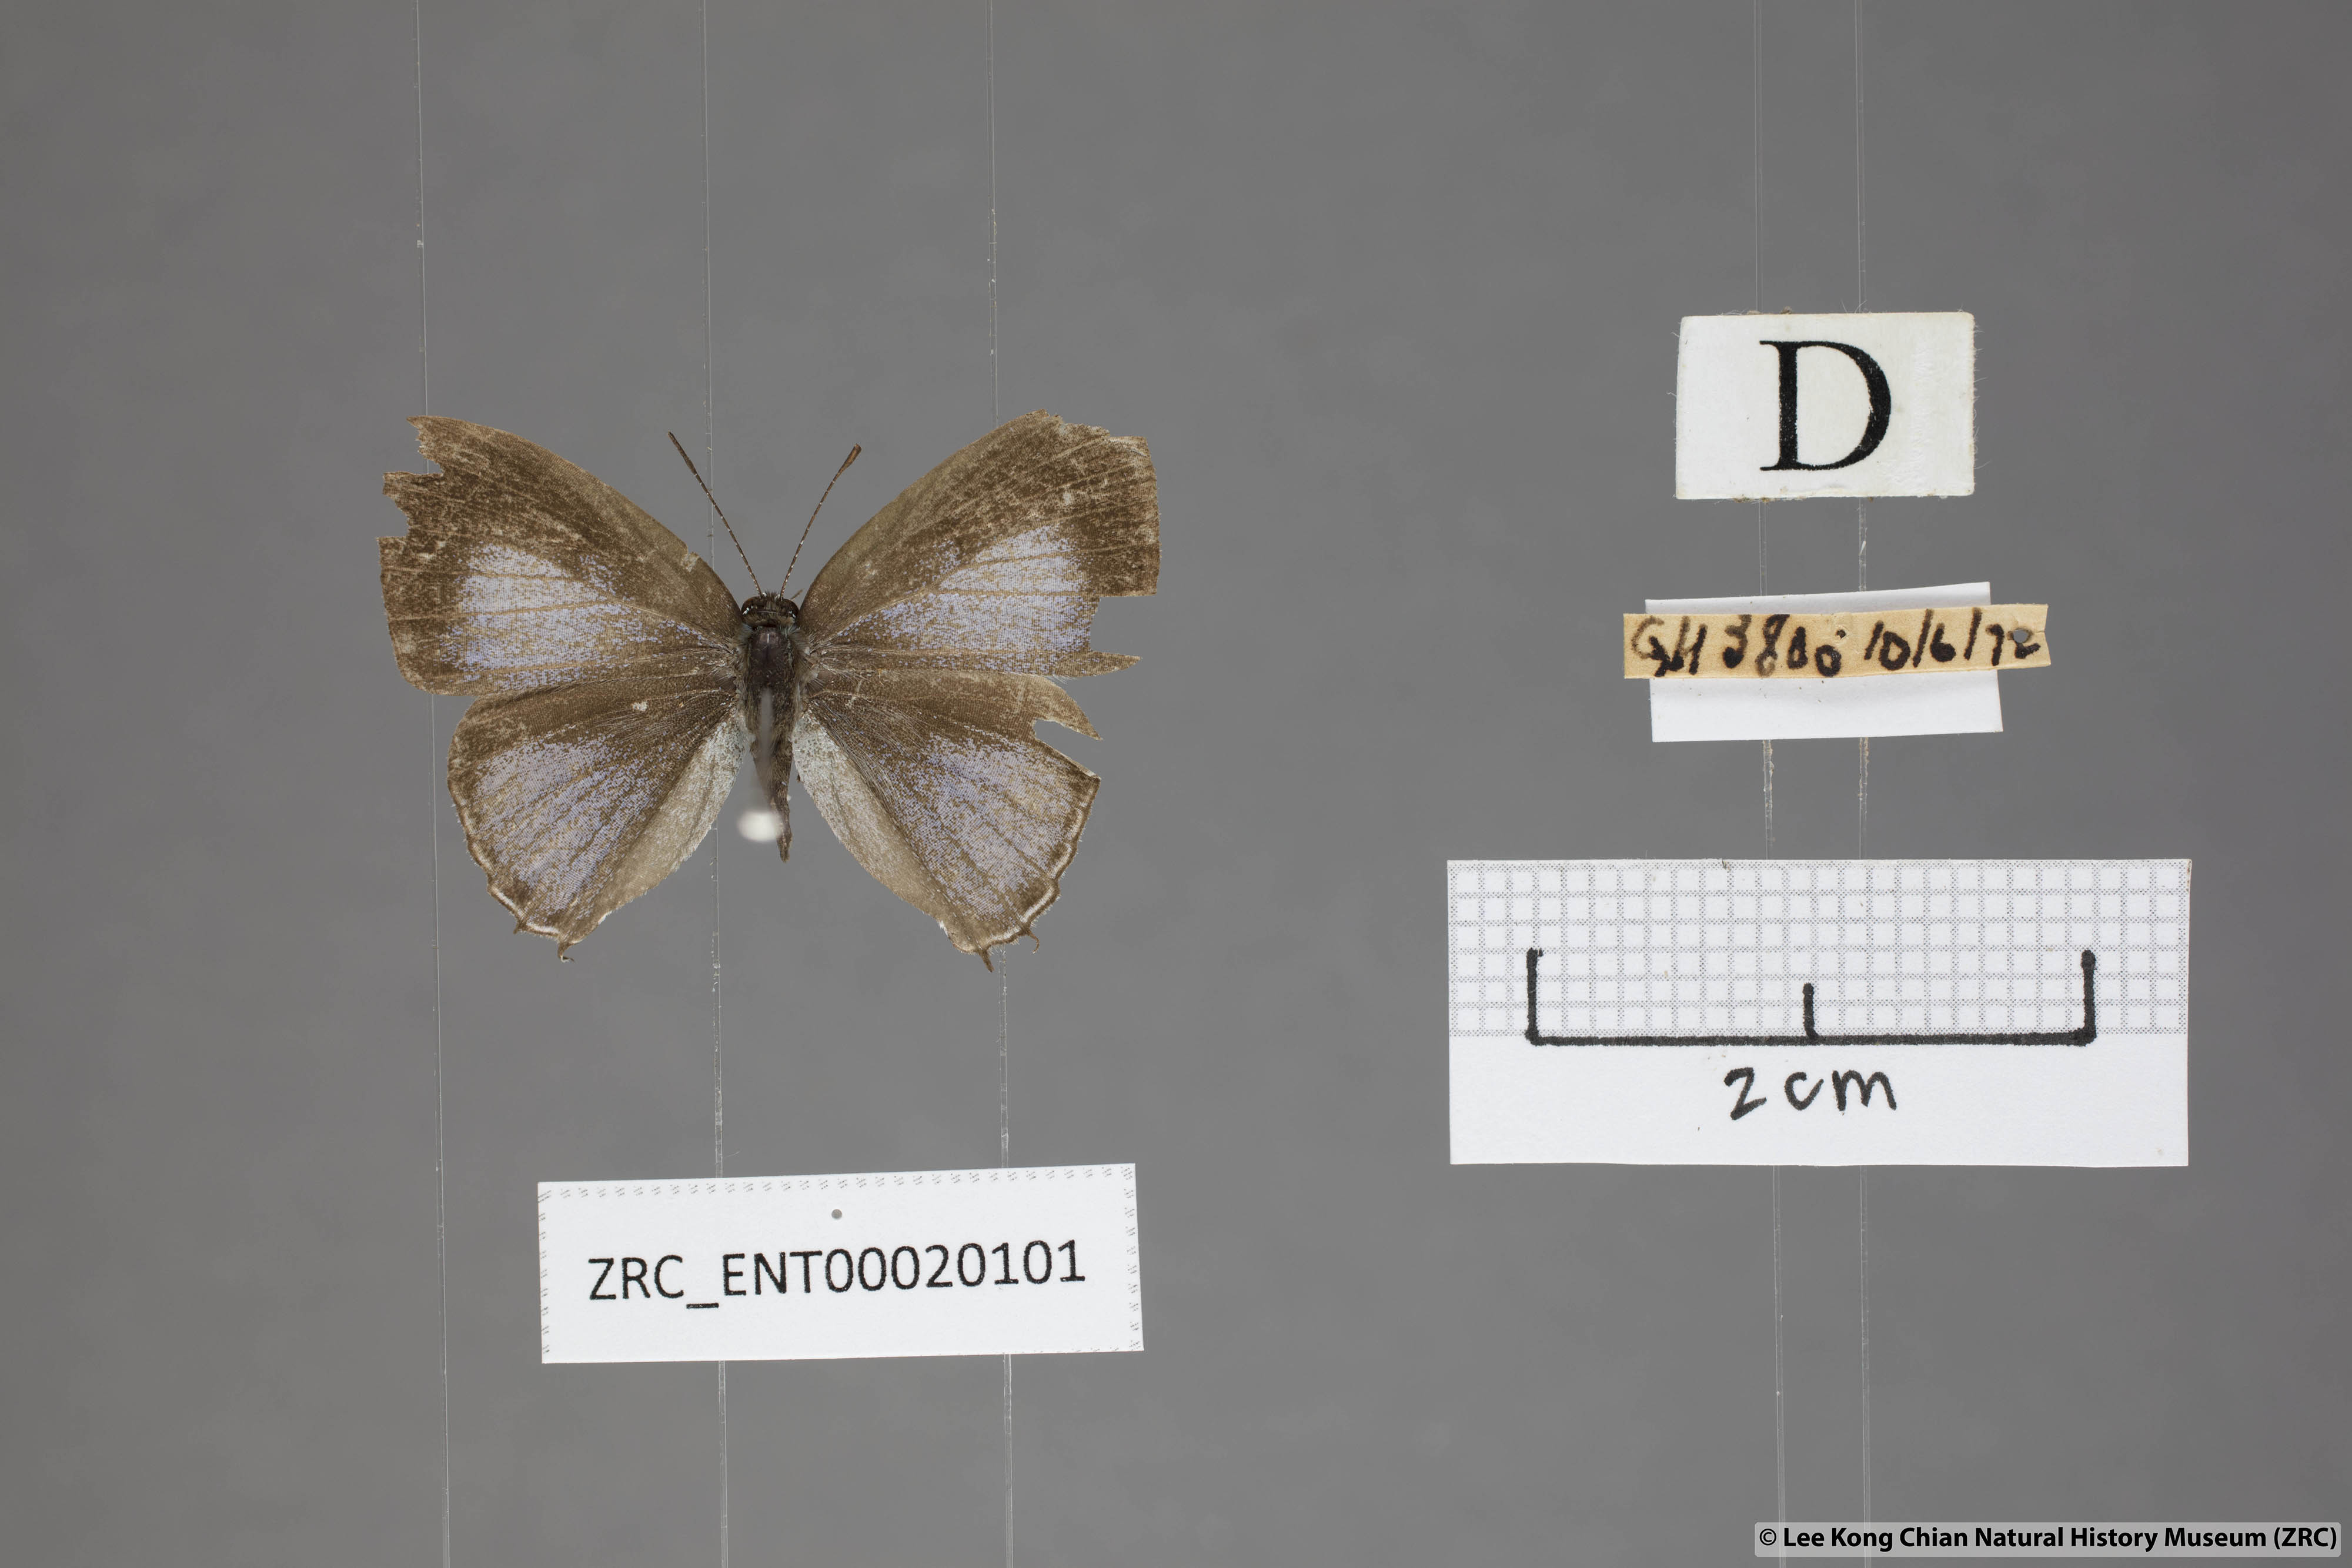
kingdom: Animalia
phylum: Arthropoda
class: Insecta
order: Lepidoptera
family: Lycaenidae
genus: Chliaria
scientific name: Chliaria pahanga
